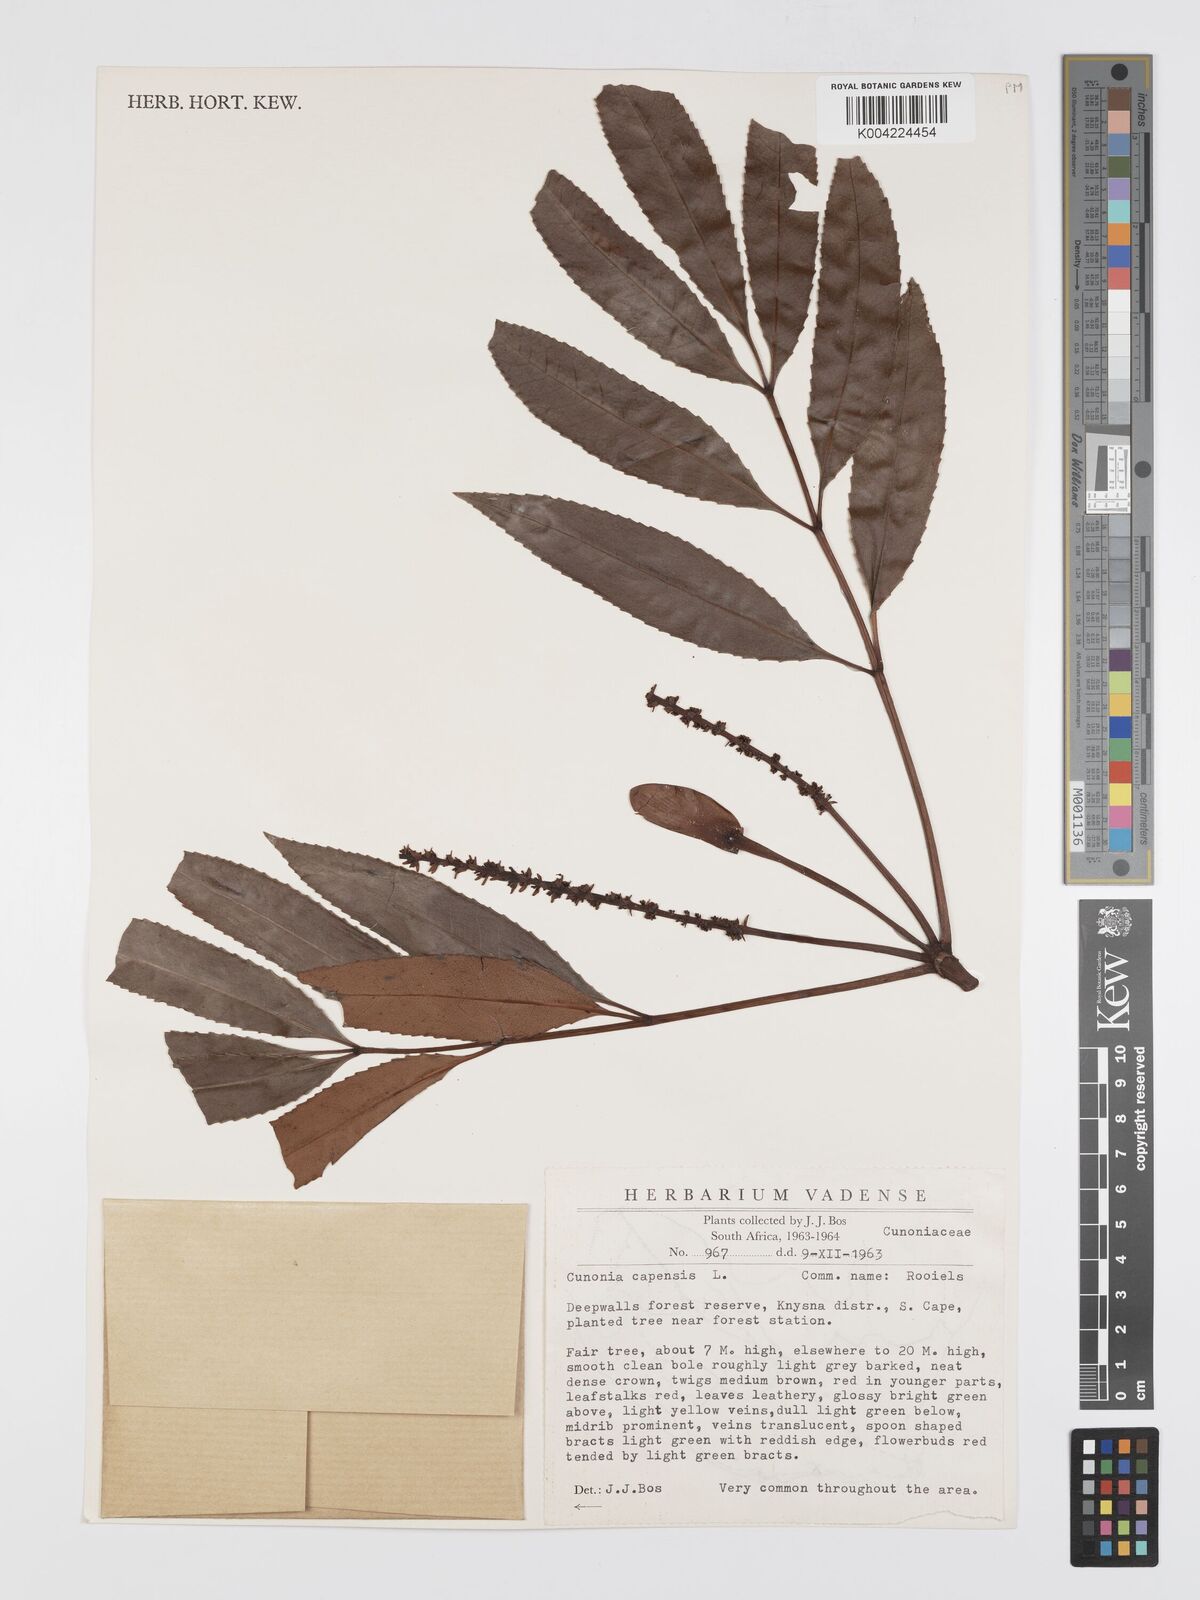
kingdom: Plantae
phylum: Tracheophyta
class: Magnoliopsida
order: Oxalidales
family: Cunoniaceae
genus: Cunonia
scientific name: Cunonia capensis
